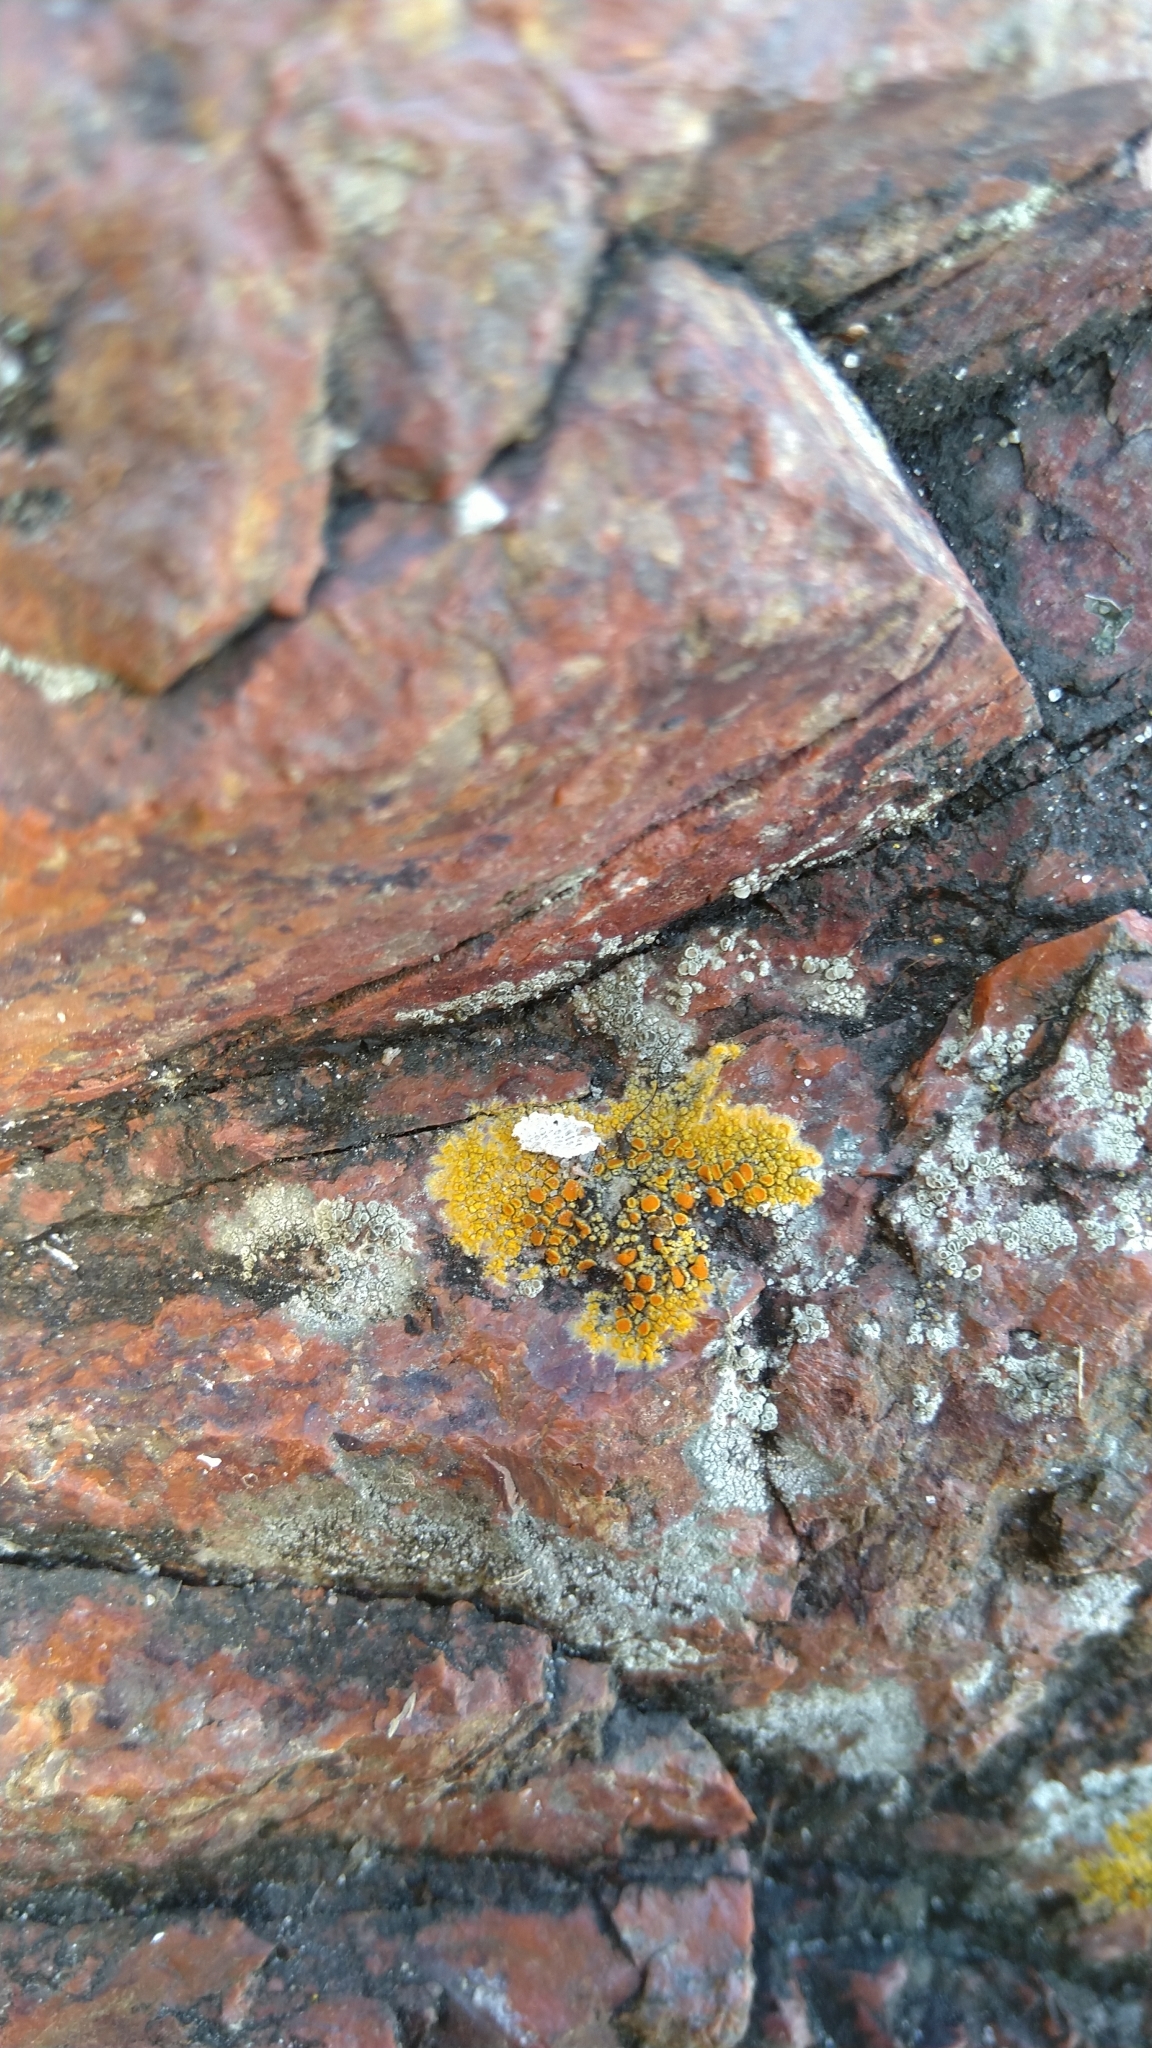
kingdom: Fungi
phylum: Ascomycota
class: Lecanoromycetes
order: Teloschistales
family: Teloschistaceae
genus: Flavoplaca
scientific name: Flavoplaca marina
